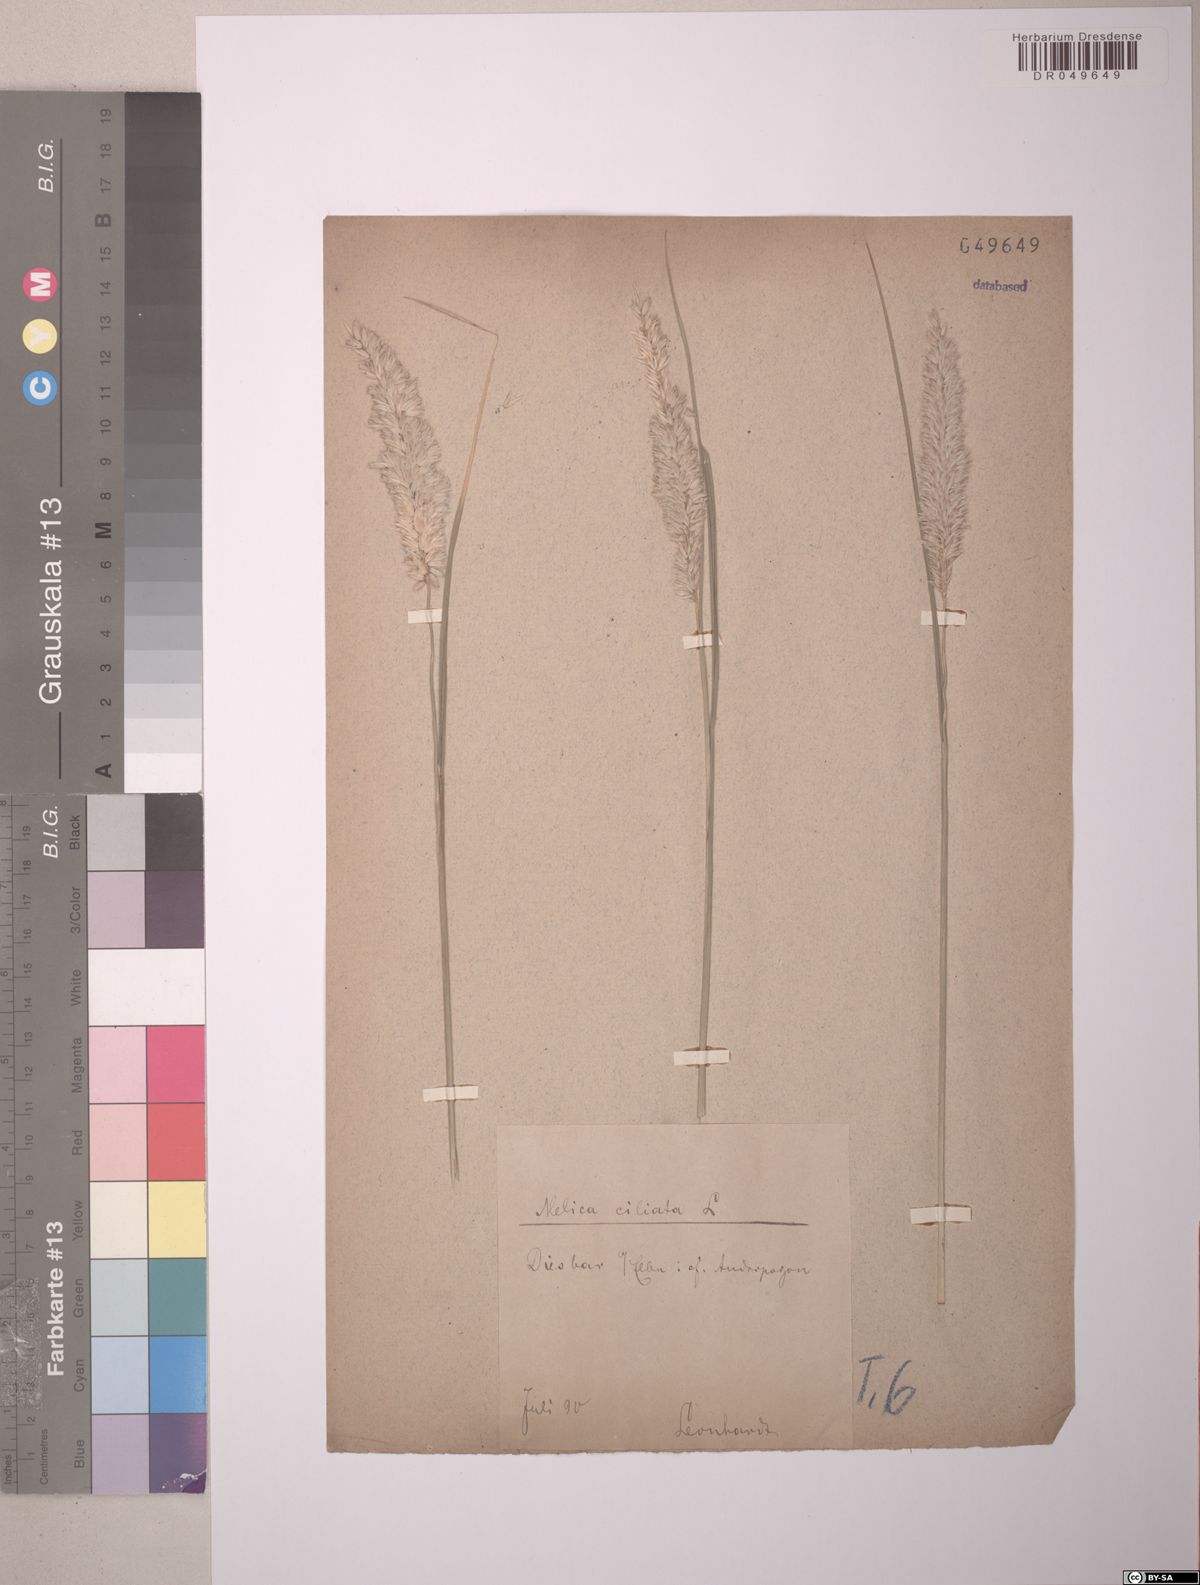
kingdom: Plantae
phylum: Tracheophyta
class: Liliopsida
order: Poales
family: Poaceae
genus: Melica
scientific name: Melica ciliata
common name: Hairy melicgrass
